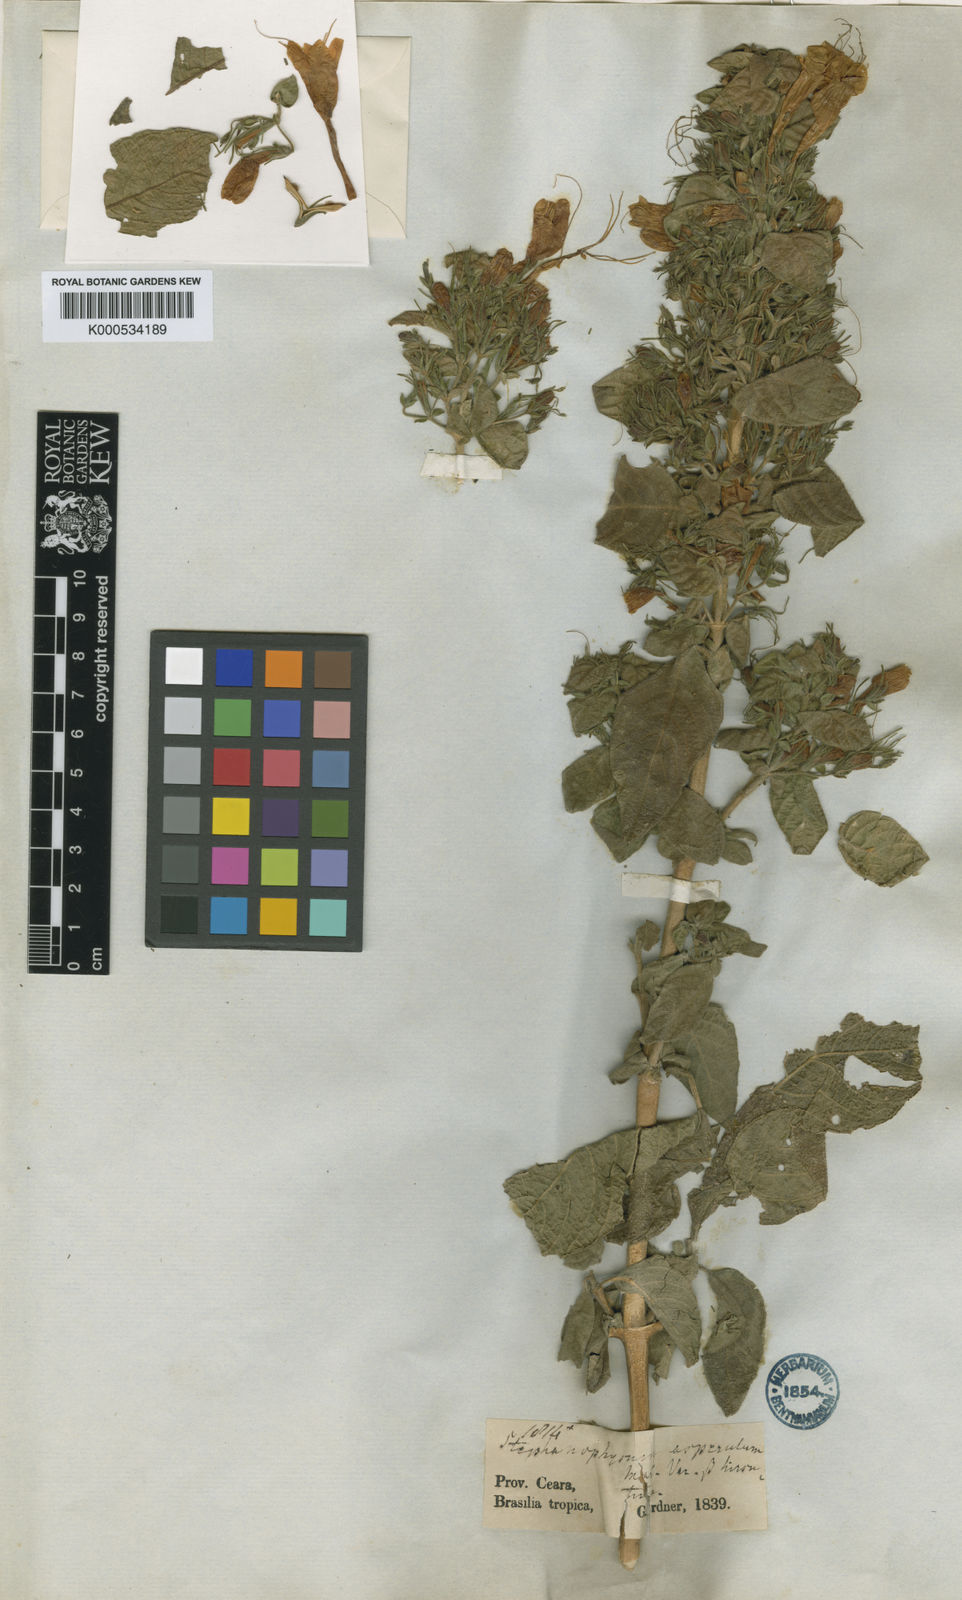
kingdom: Plantae
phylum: Tracheophyta
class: Magnoliopsida
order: Lamiales
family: Acanthaceae
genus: Ruellia
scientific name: Ruellia asperula
